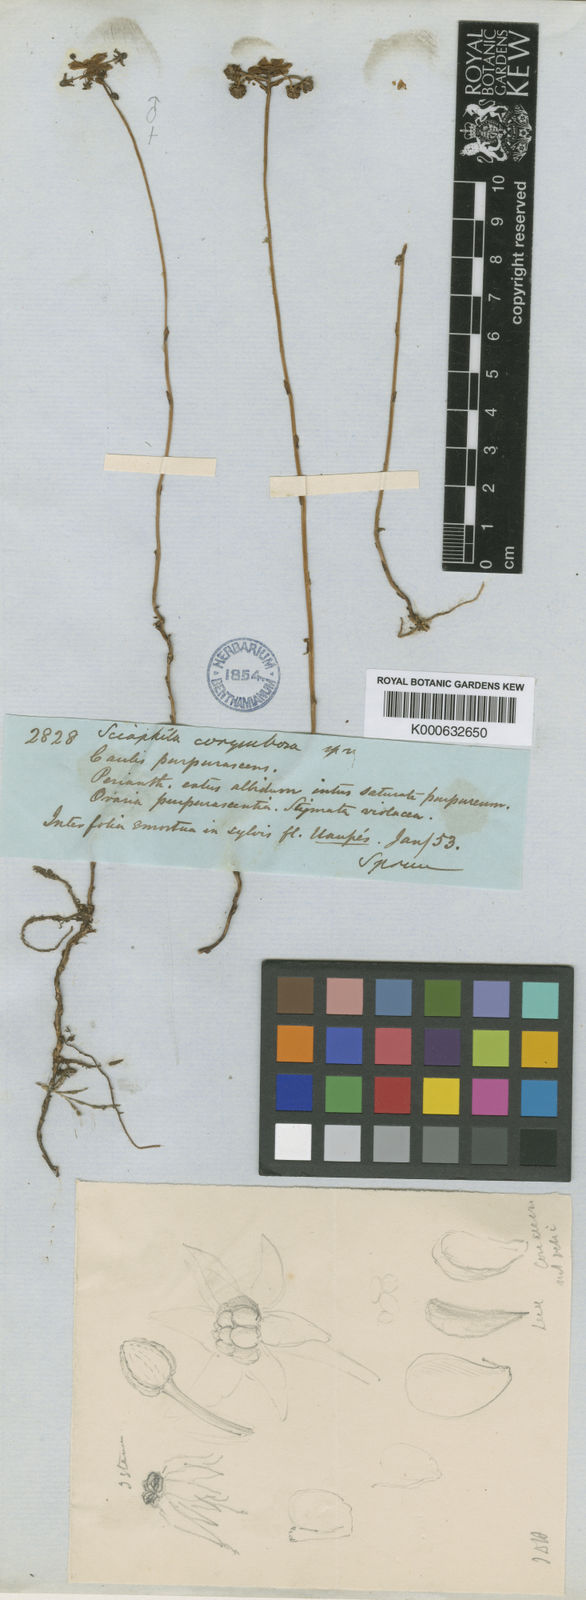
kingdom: Plantae
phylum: Tracheophyta
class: Liliopsida
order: Pandanales
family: Triuridaceae
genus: Sciaphila
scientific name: Sciaphila corymbosa
